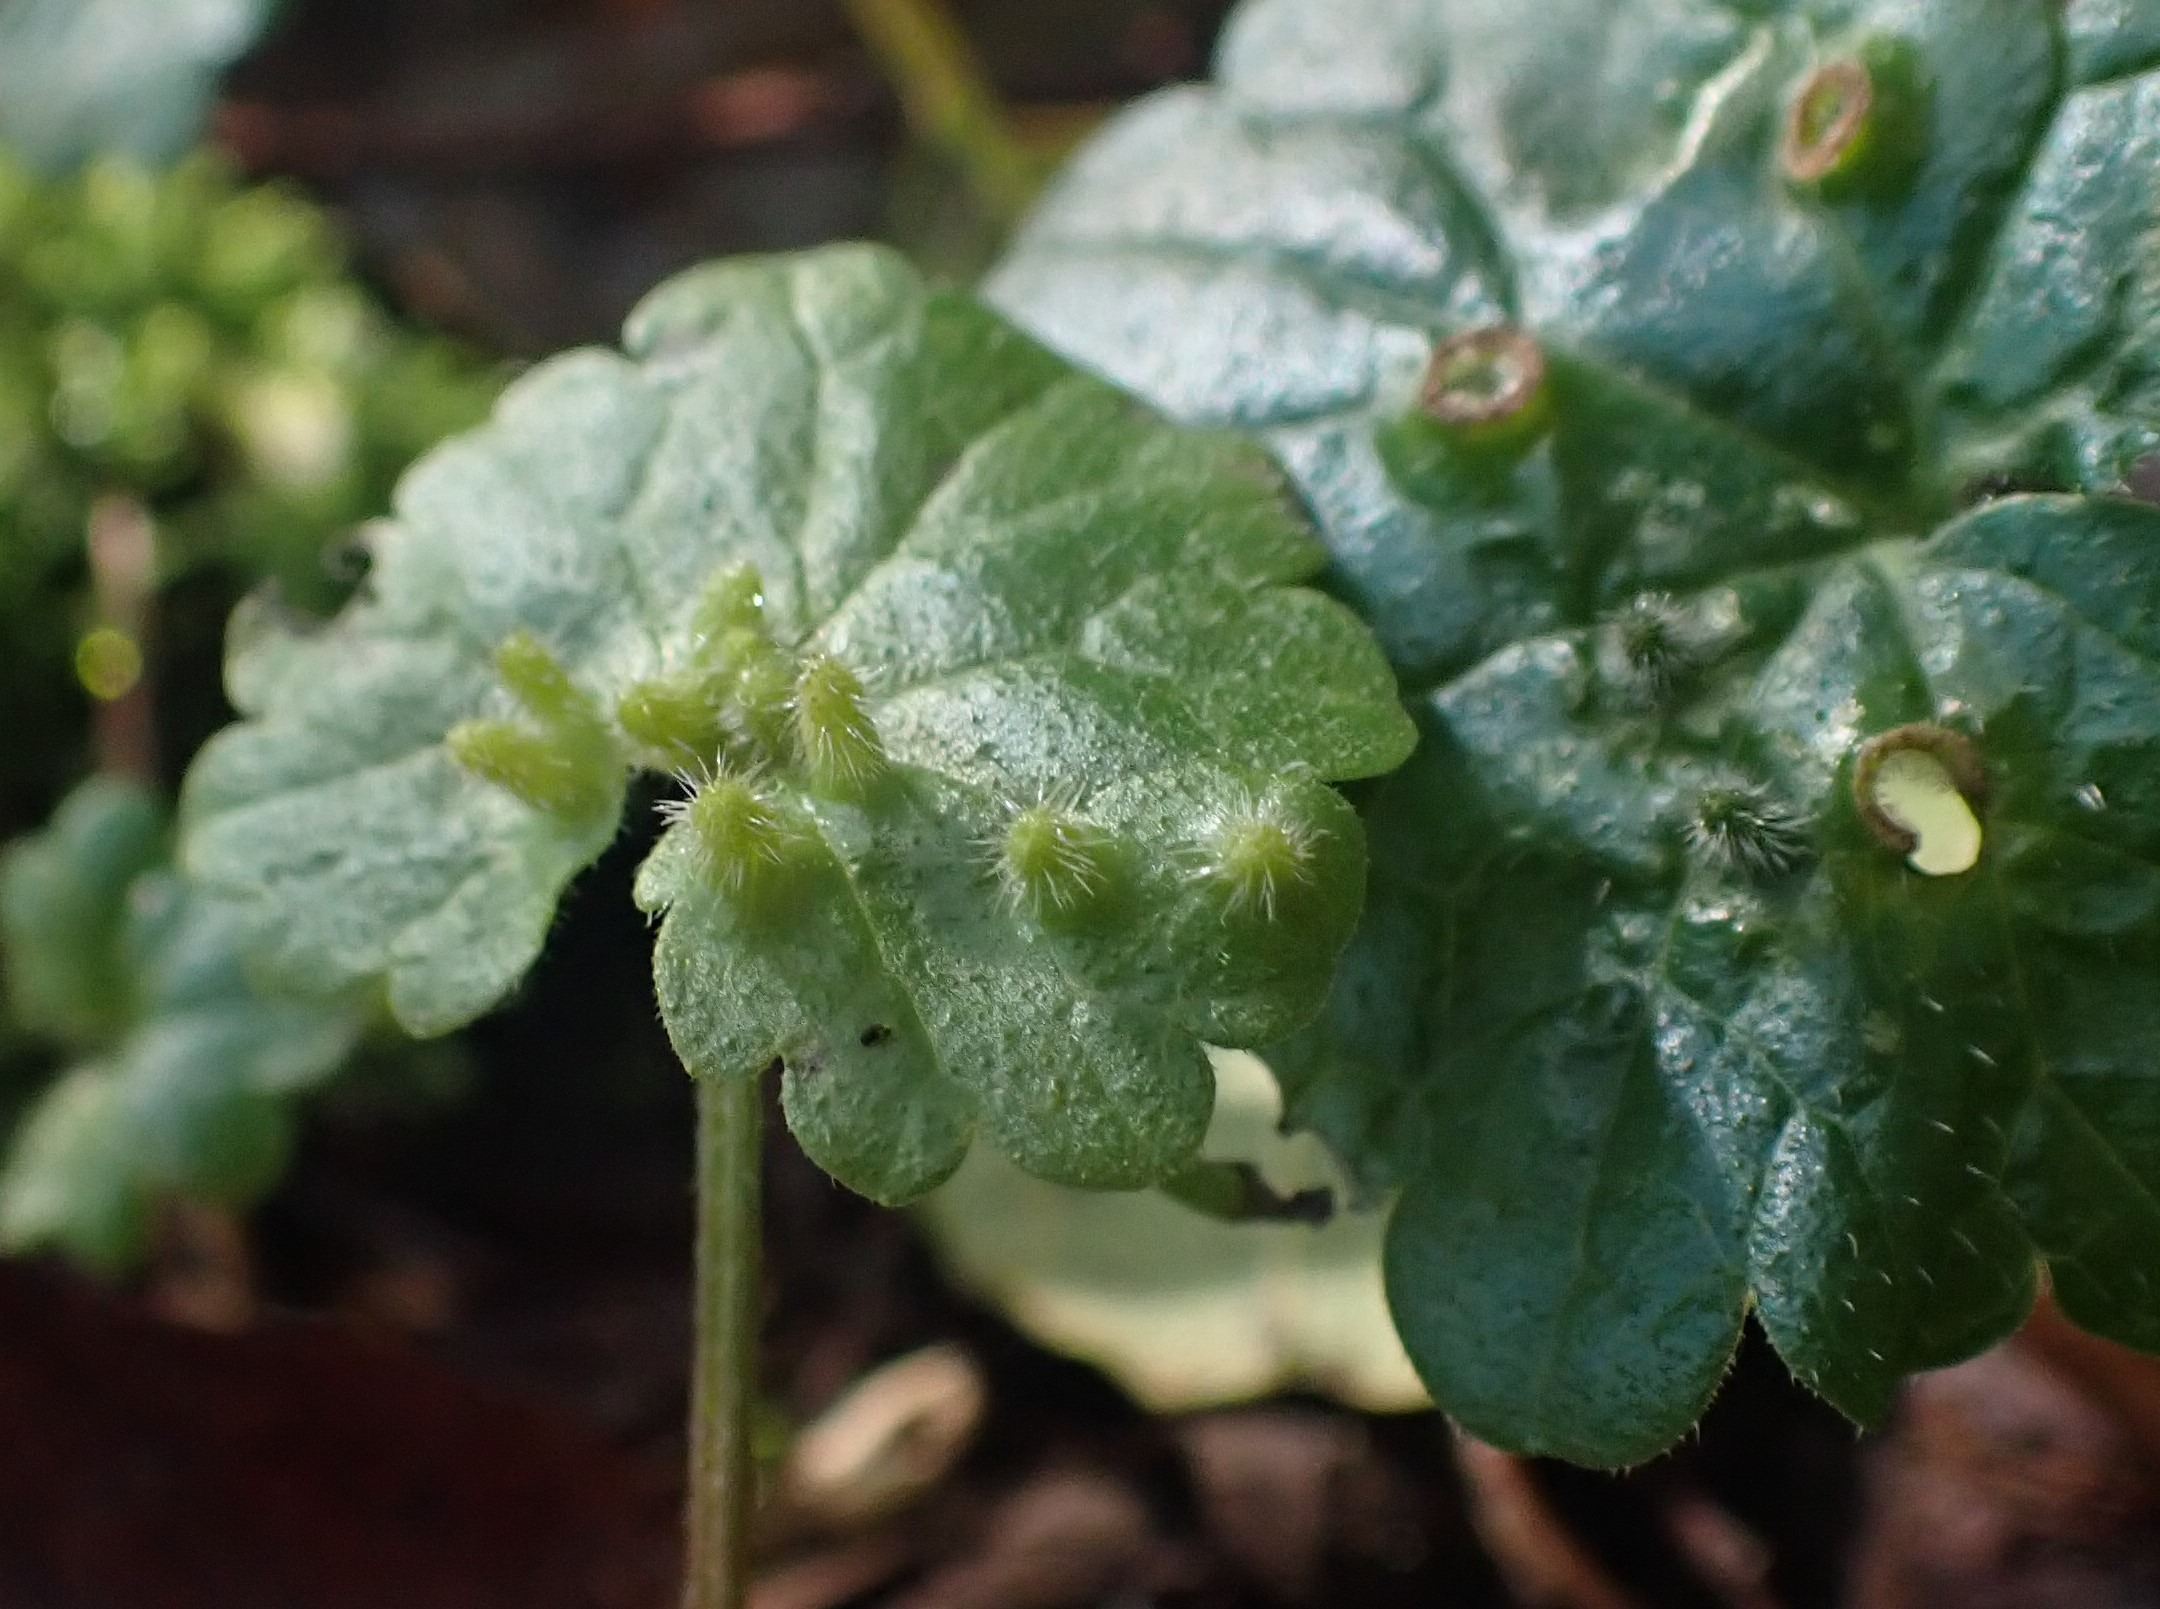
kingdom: Animalia
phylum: Arthropoda
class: Insecta
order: Diptera
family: Cecidomyiidae
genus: Rondaniola
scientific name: Rondaniola bursaria
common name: Hattifnatgalmyg
